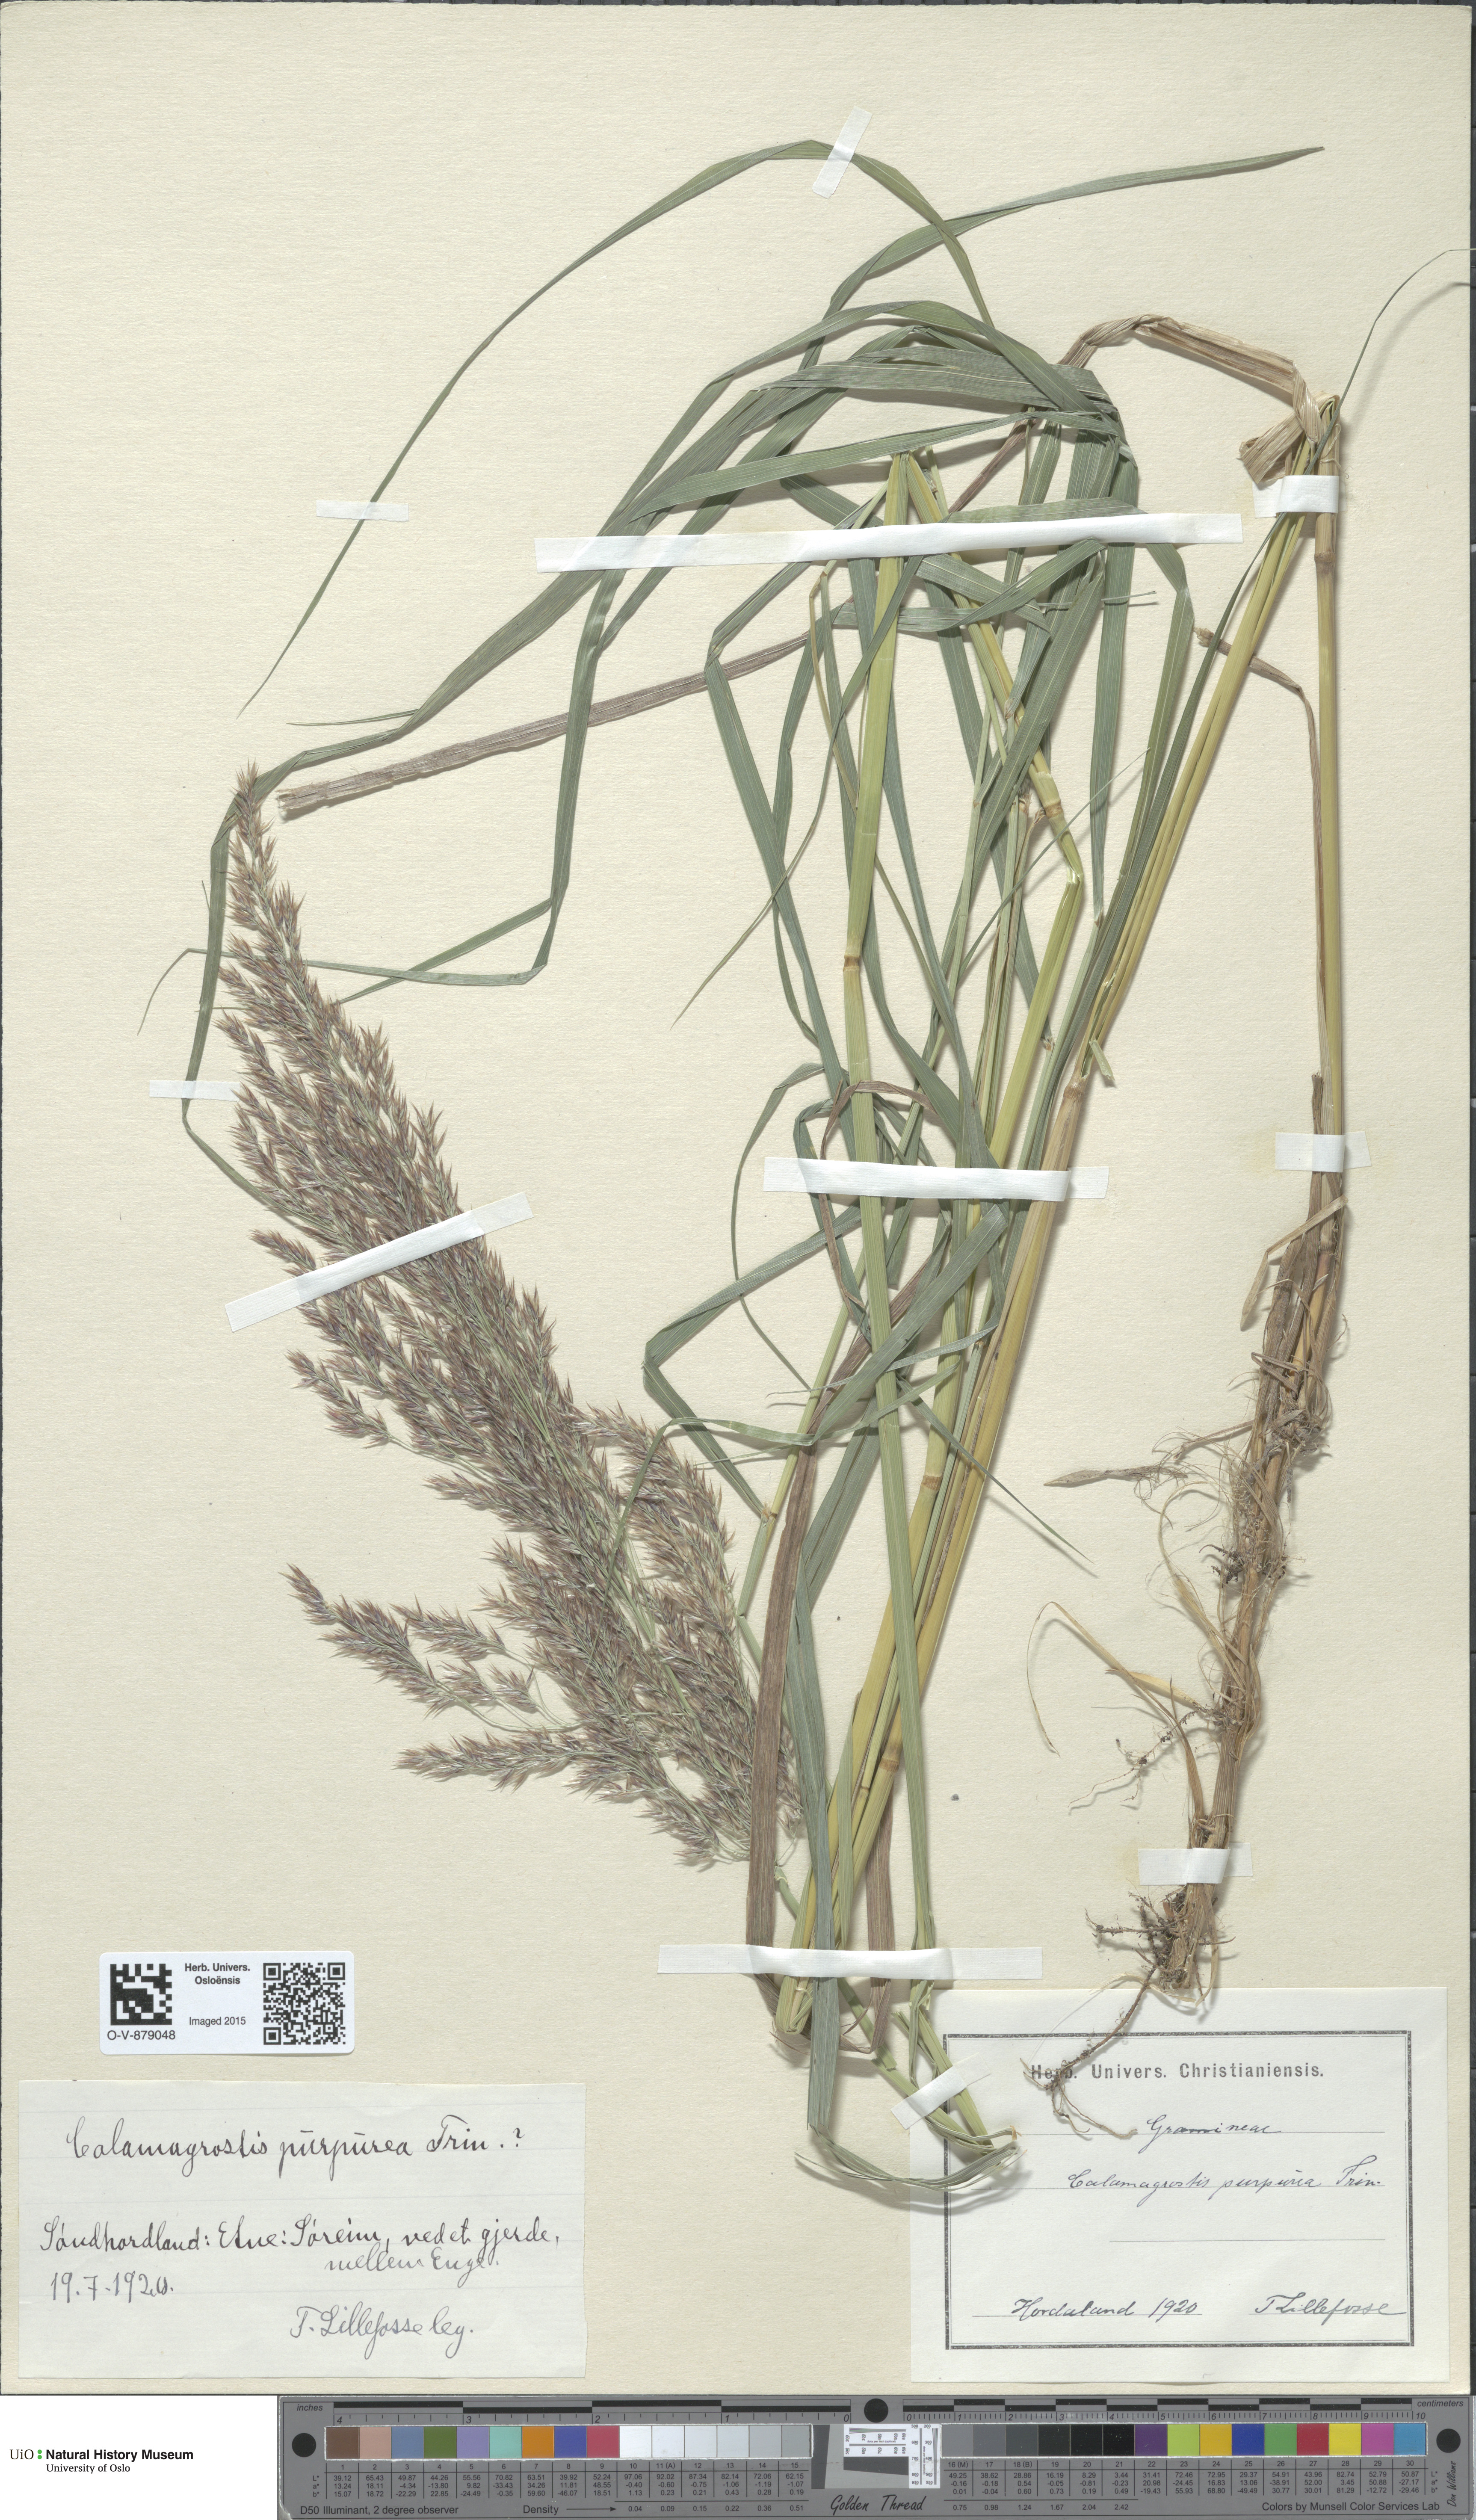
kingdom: Plantae
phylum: Tracheophyta
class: Liliopsida
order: Poales
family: Poaceae
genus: Calamagrostis
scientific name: Calamagrostis purpurea
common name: Scandinavian small-reed
